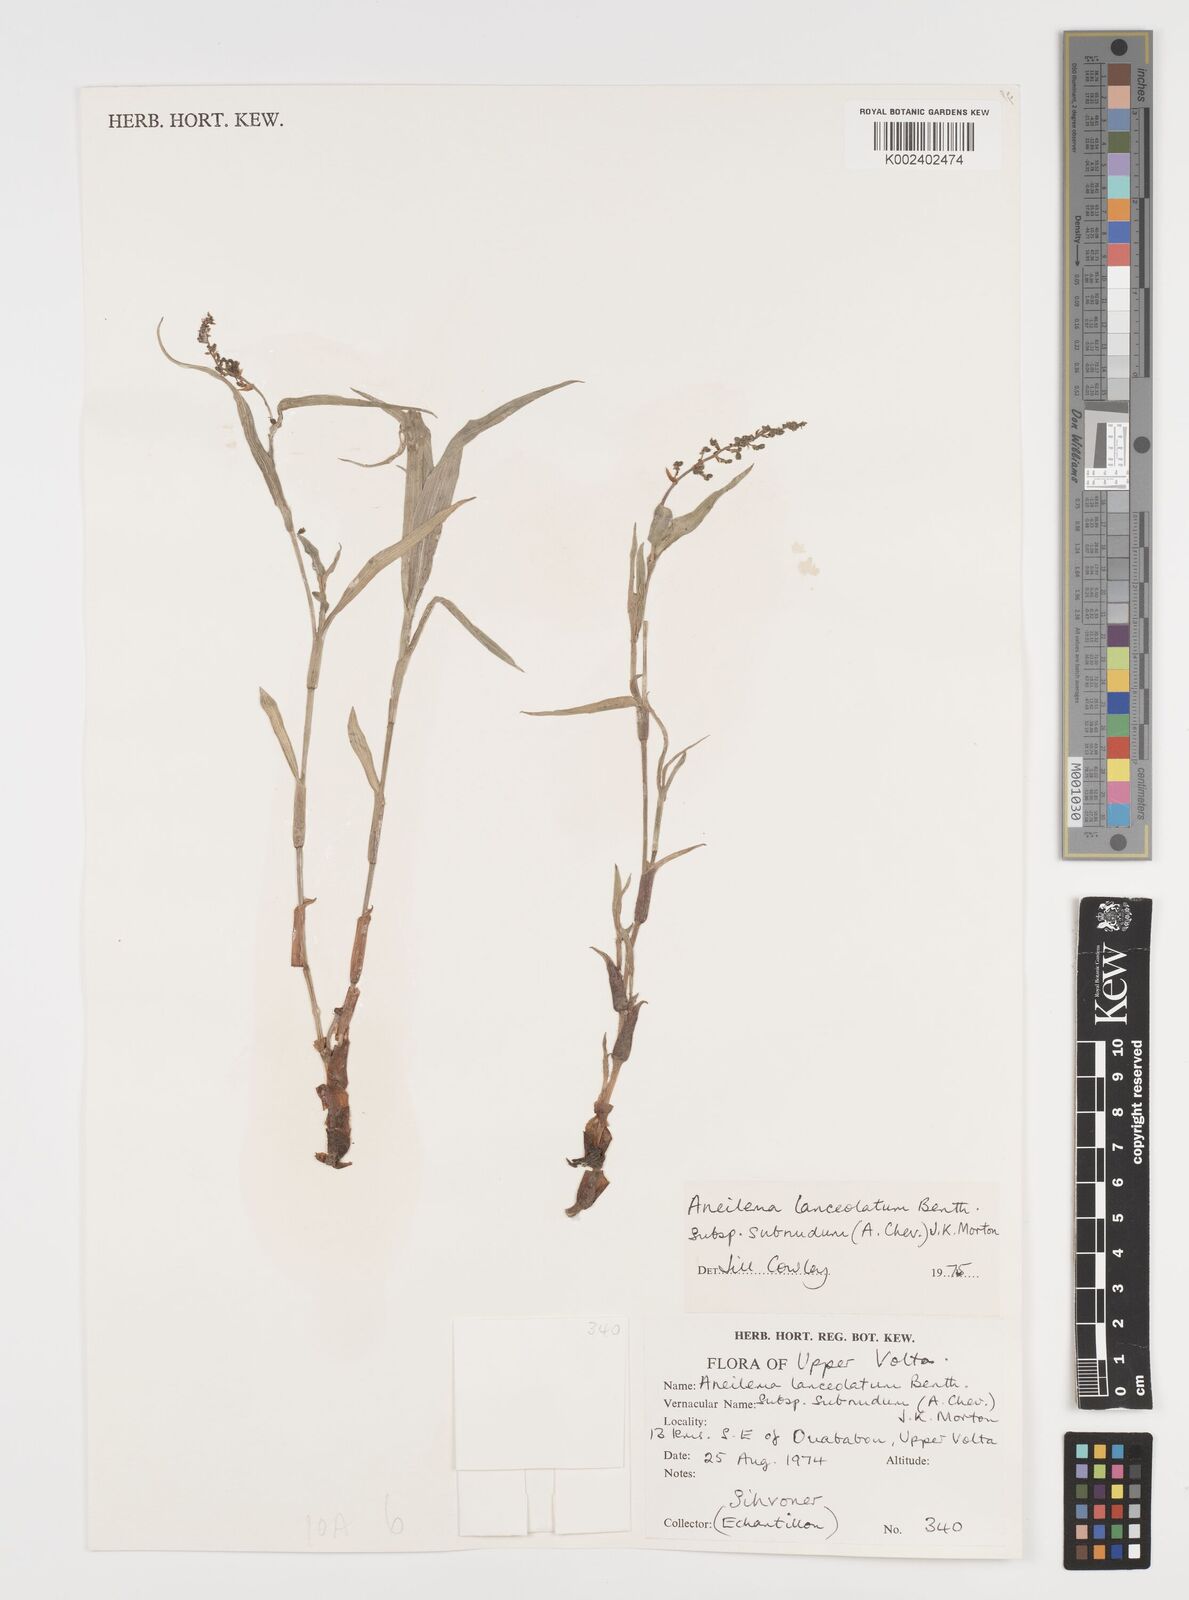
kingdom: Plantae
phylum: Tracheophyta
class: Liliopsida
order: Commelinales
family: Commelinaceae
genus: Aneilema
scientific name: Aneilema lanceolatum
